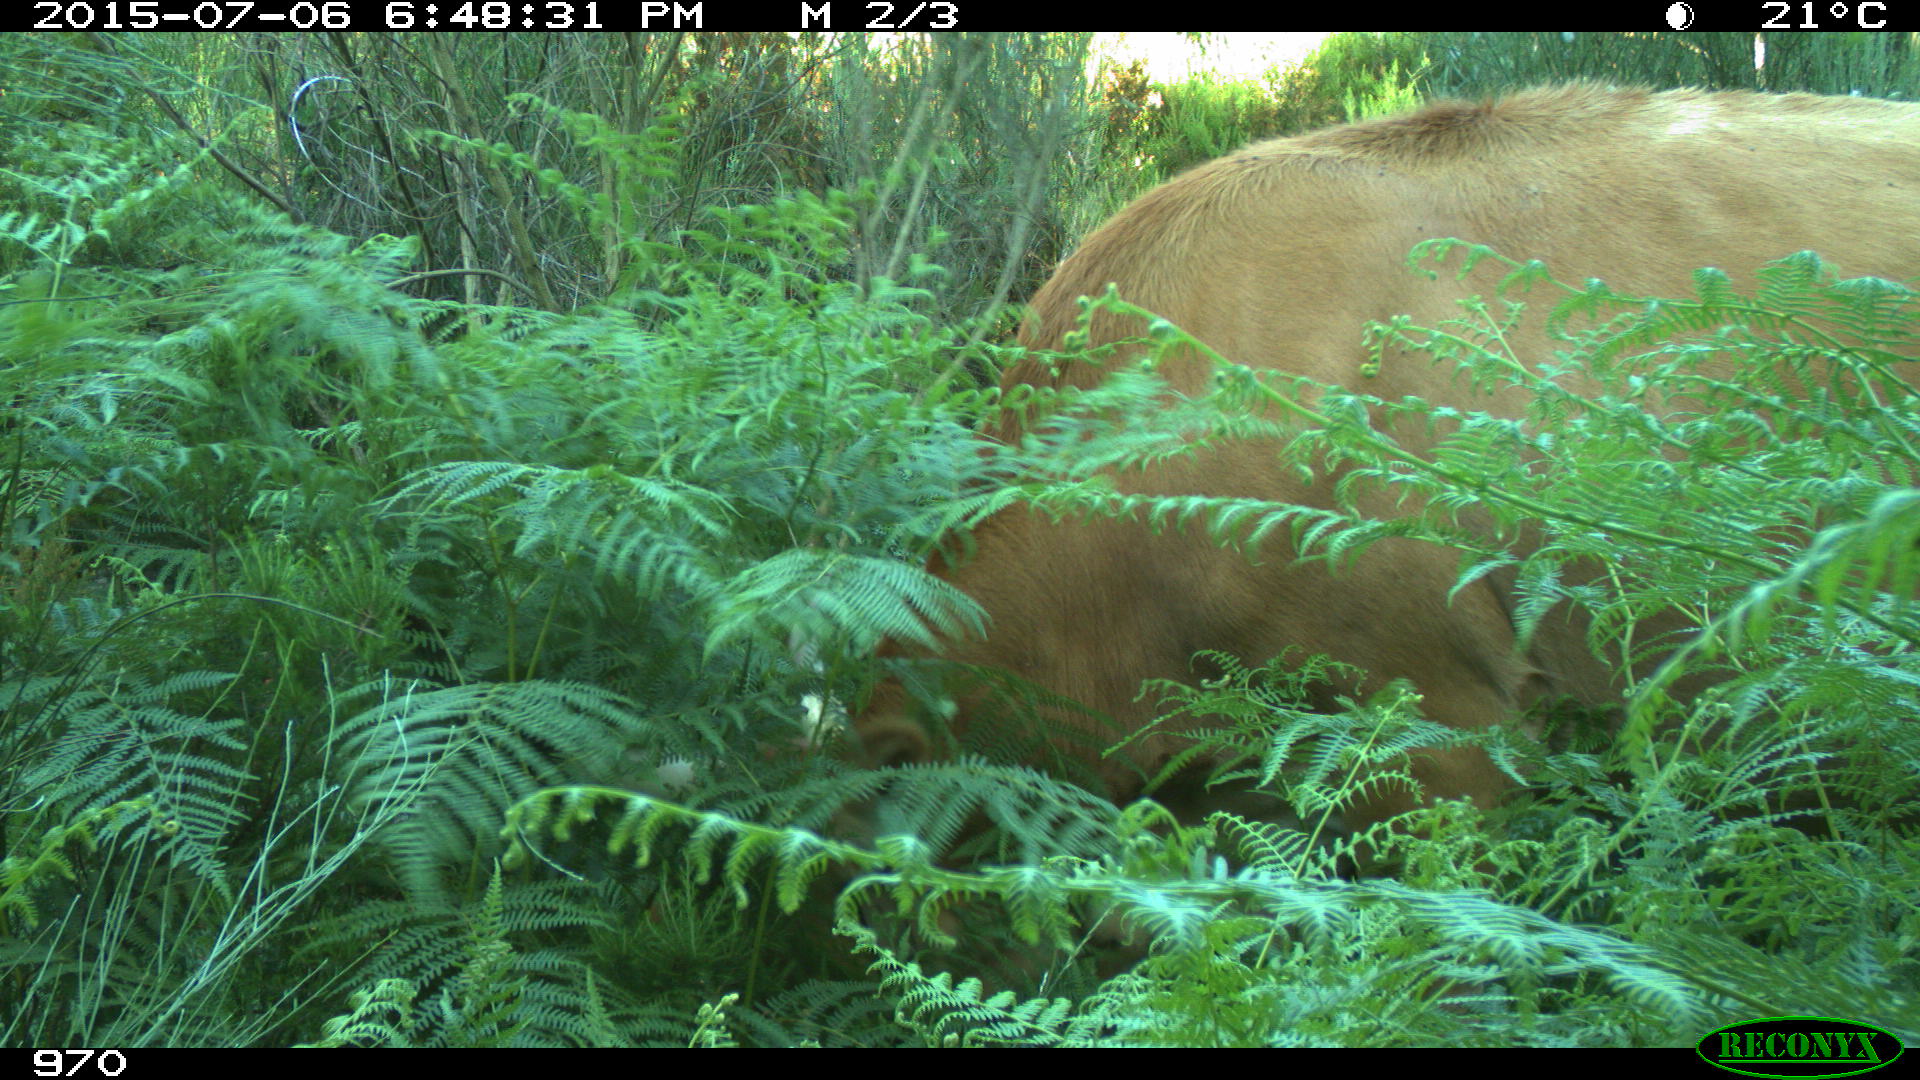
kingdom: Animalia
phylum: Chordata
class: Mammalia
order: Artiodactyla
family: Bovidae
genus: Bos
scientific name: Bos taurus
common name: Domesticated cattle
